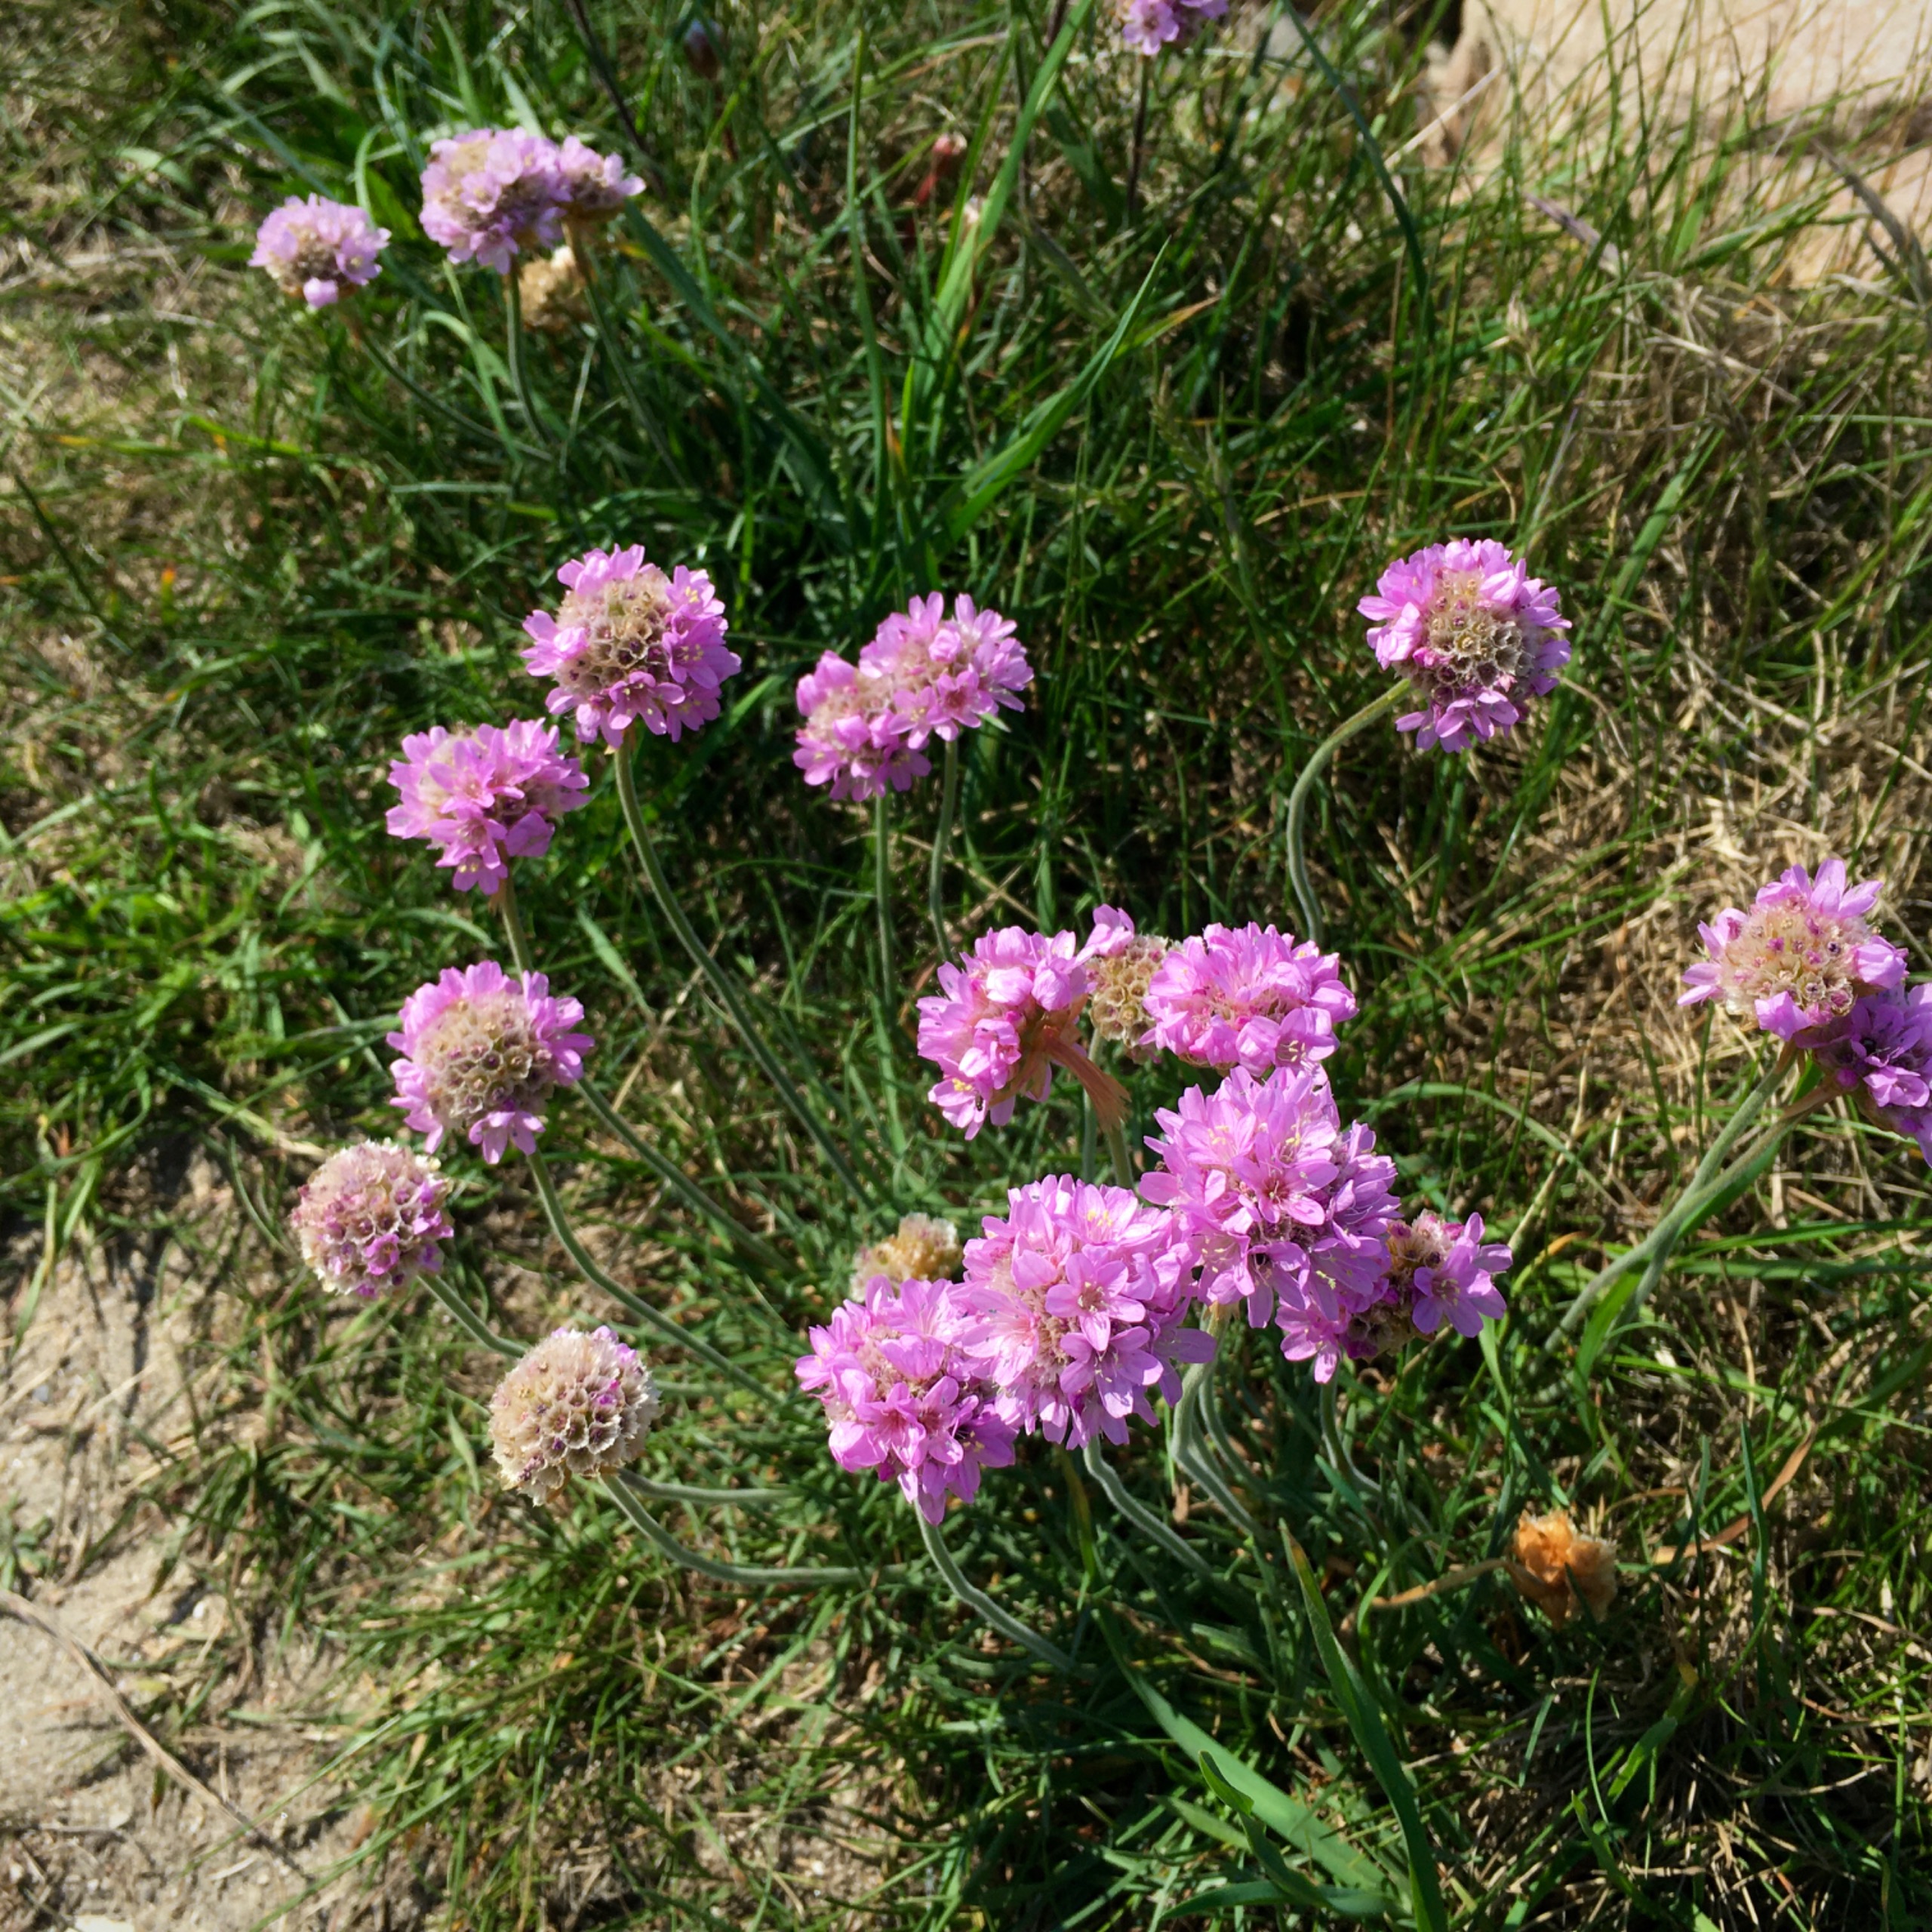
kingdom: Plantae
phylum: Tracheophyta
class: Magnoliopsida
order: Caryophyllales
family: Plumbaginaceae
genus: Armeria
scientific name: Armeria maritima
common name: Engelskgræs
